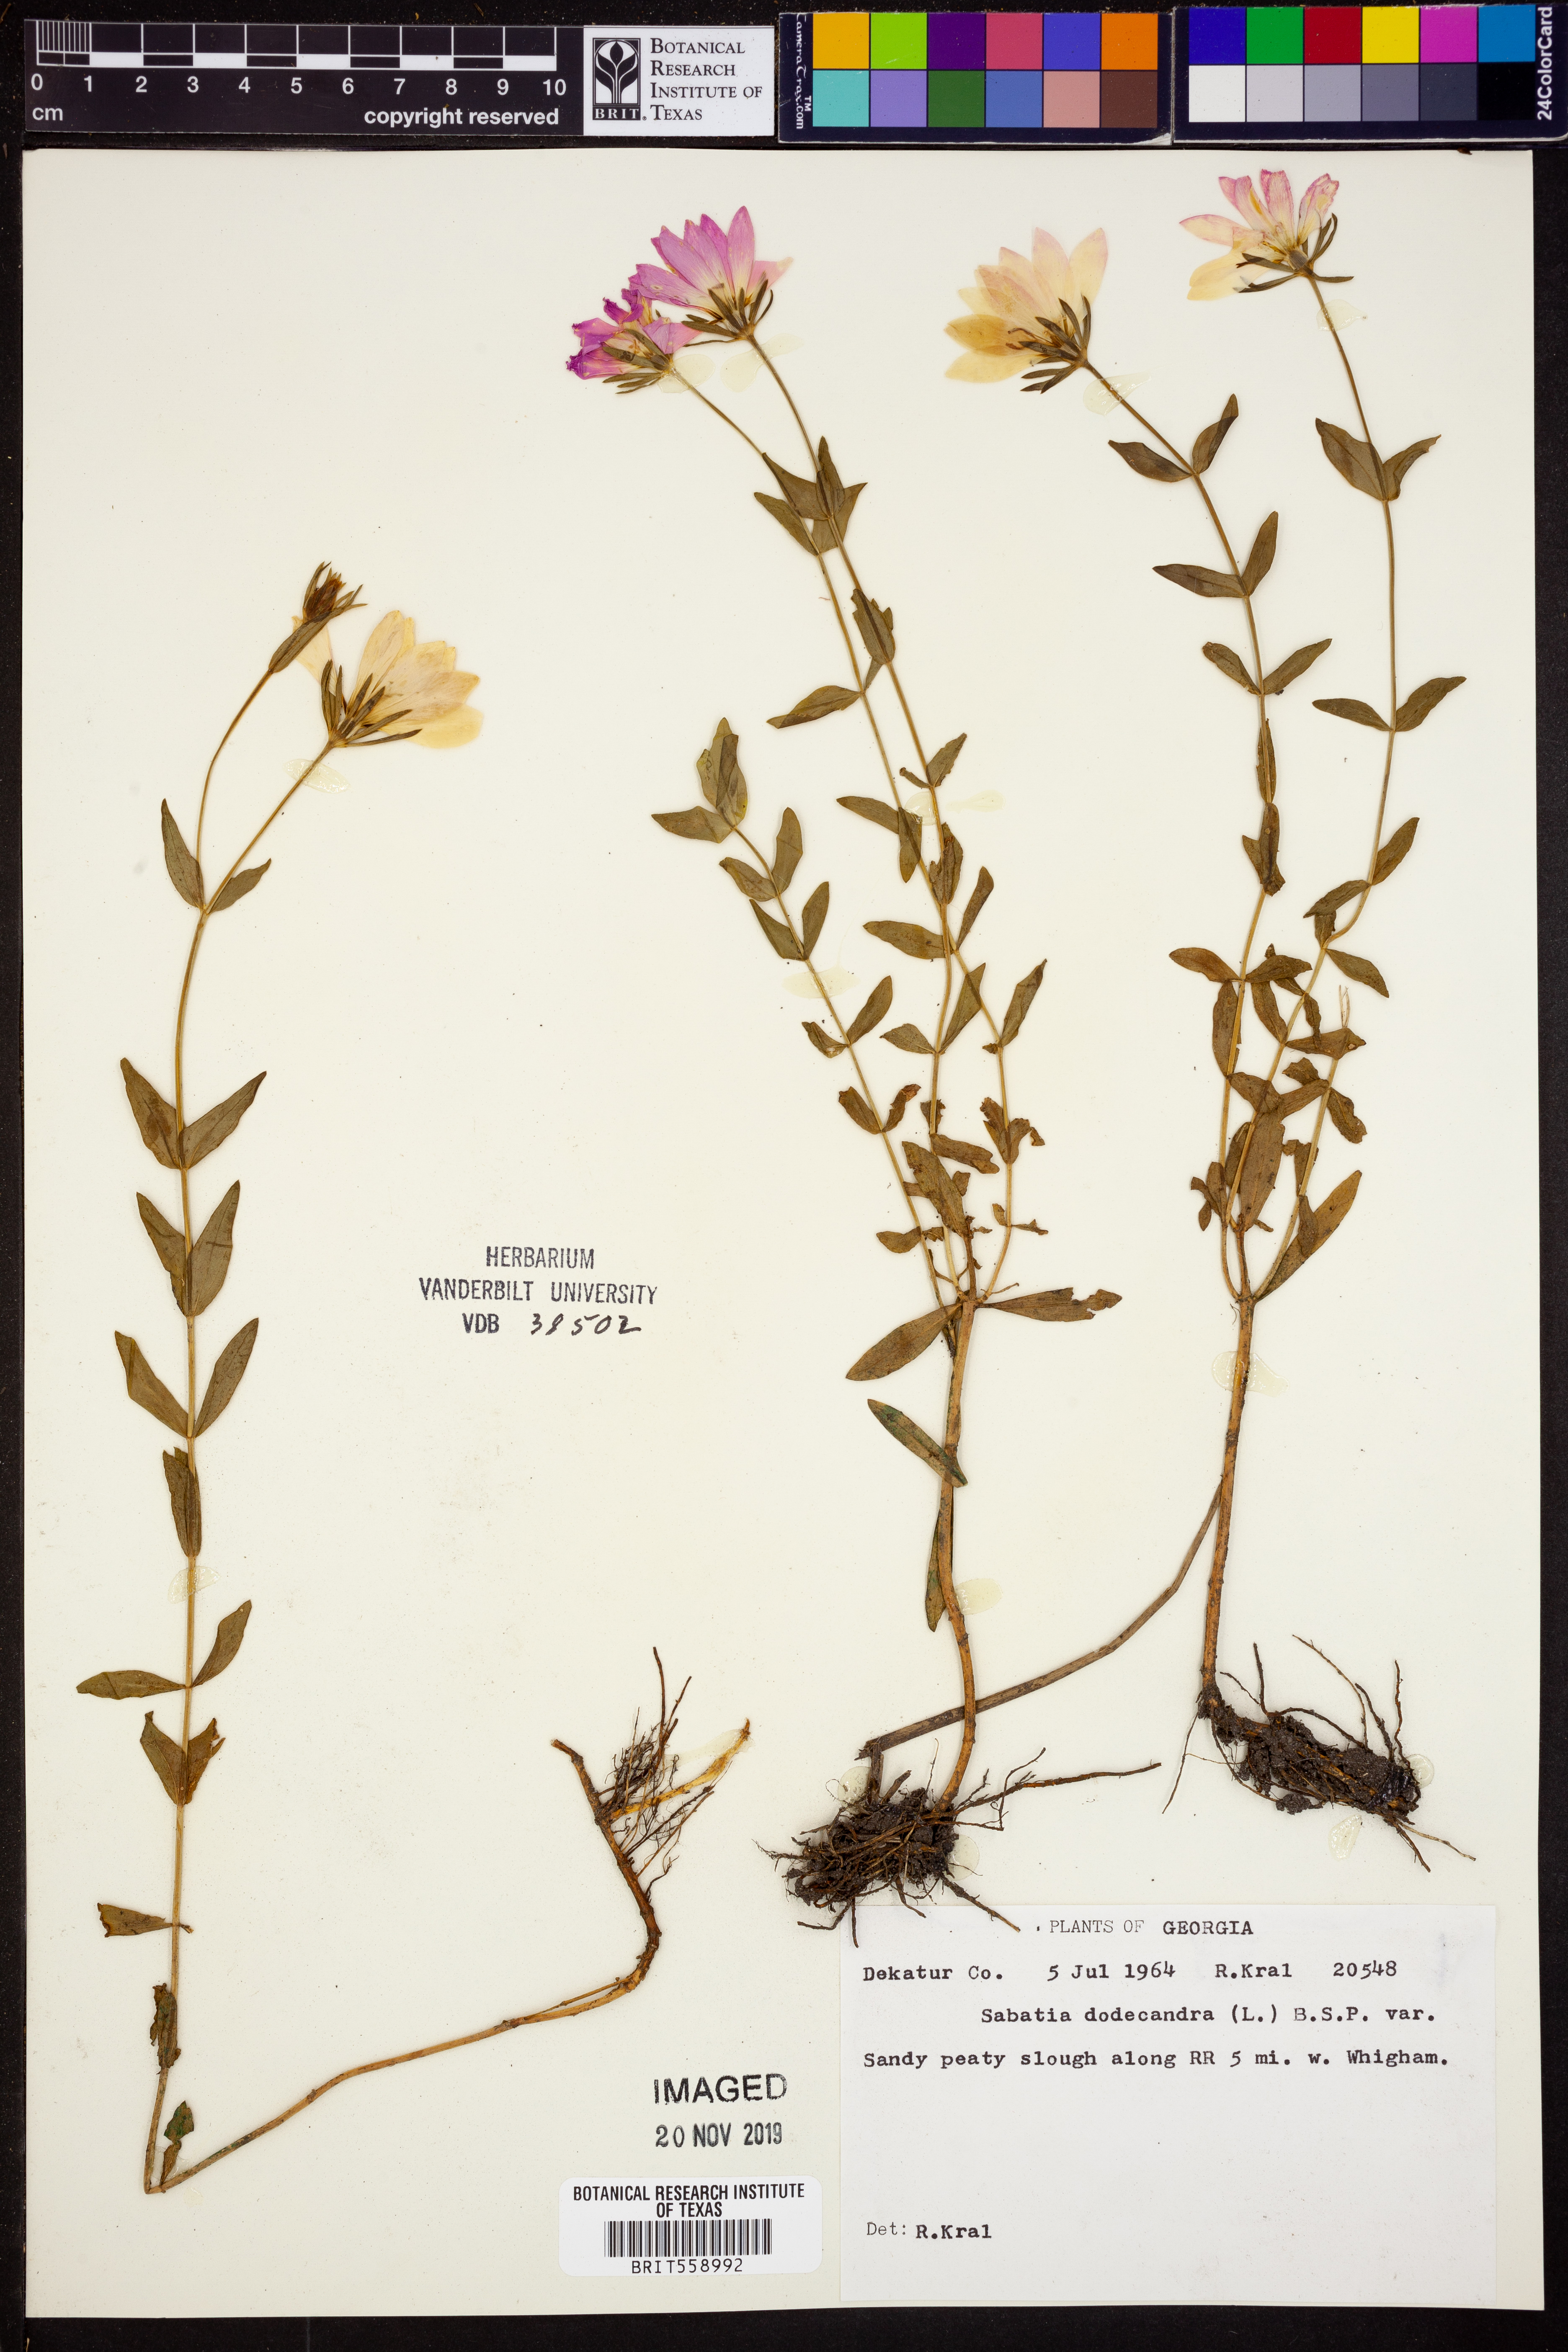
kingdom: Plantae
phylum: Tracheophyta
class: Magnoliopsida
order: Gentianales
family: Gentianaceae
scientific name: Gentianaceae
